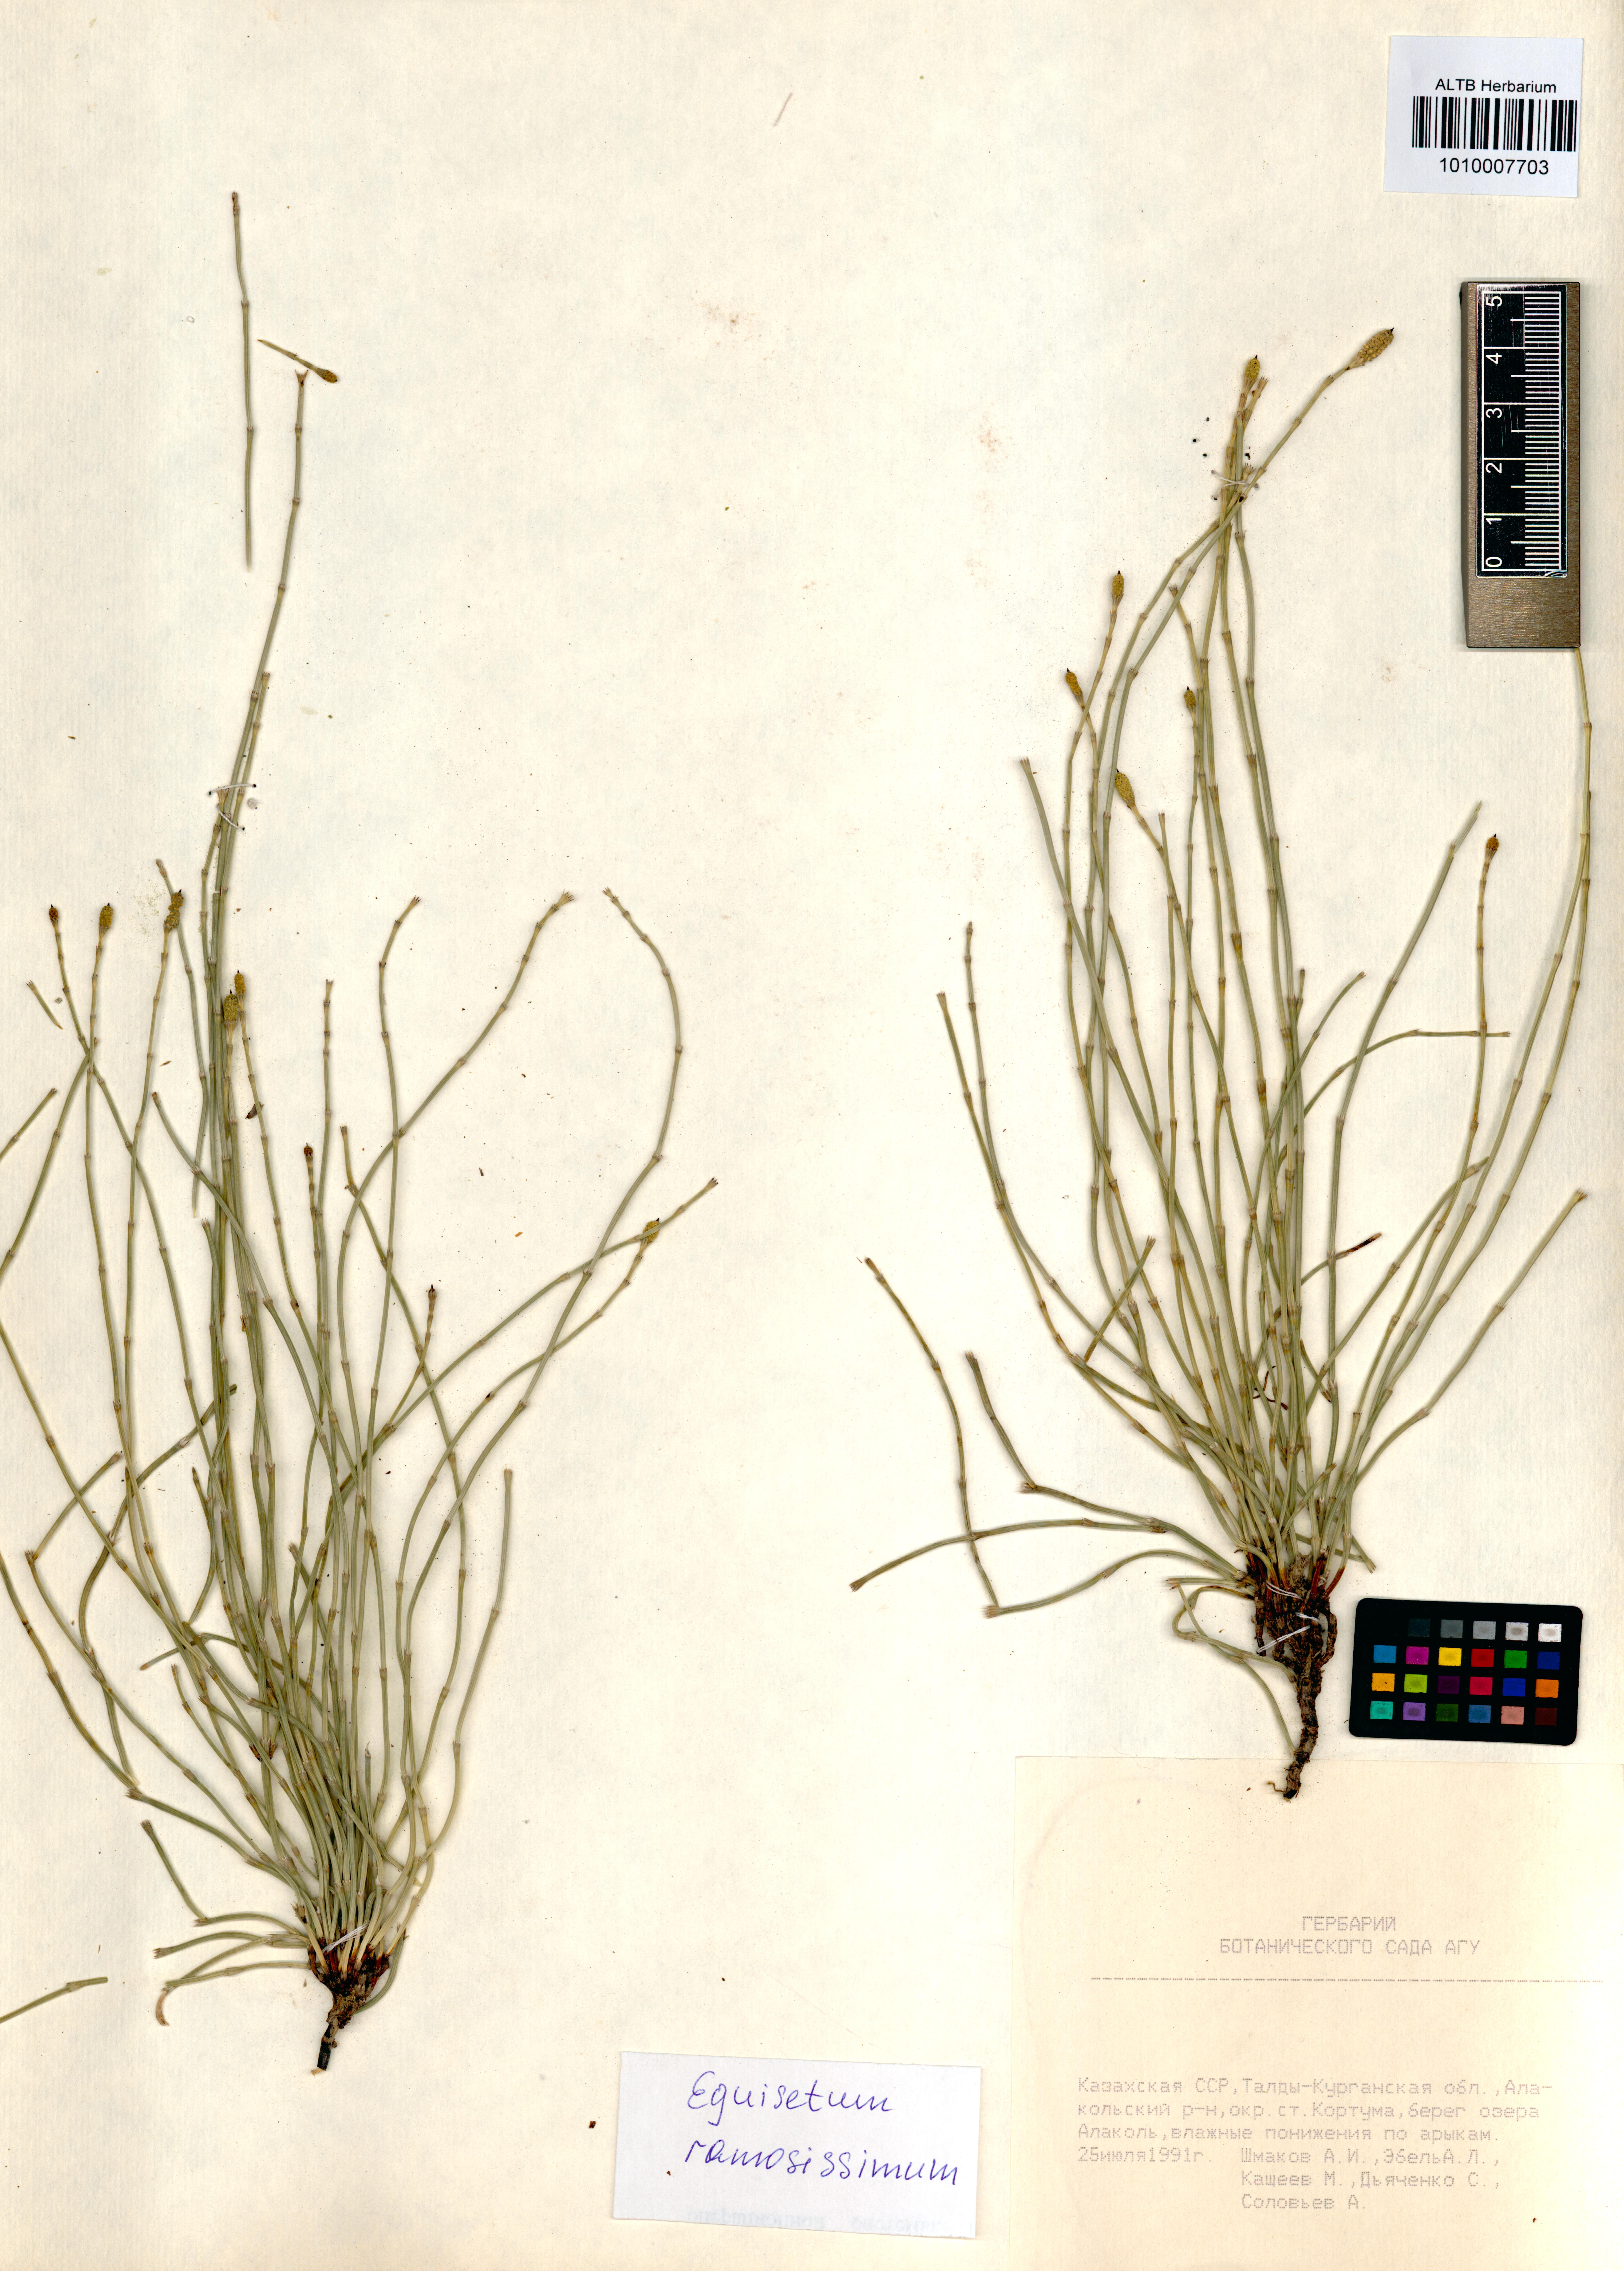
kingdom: Plantae
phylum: Tracheophyta
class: Polypodiopsida
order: Equisetales
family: Equisetaceae
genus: Equisetum
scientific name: Equisetum ramosissimum
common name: Branched horsetail
